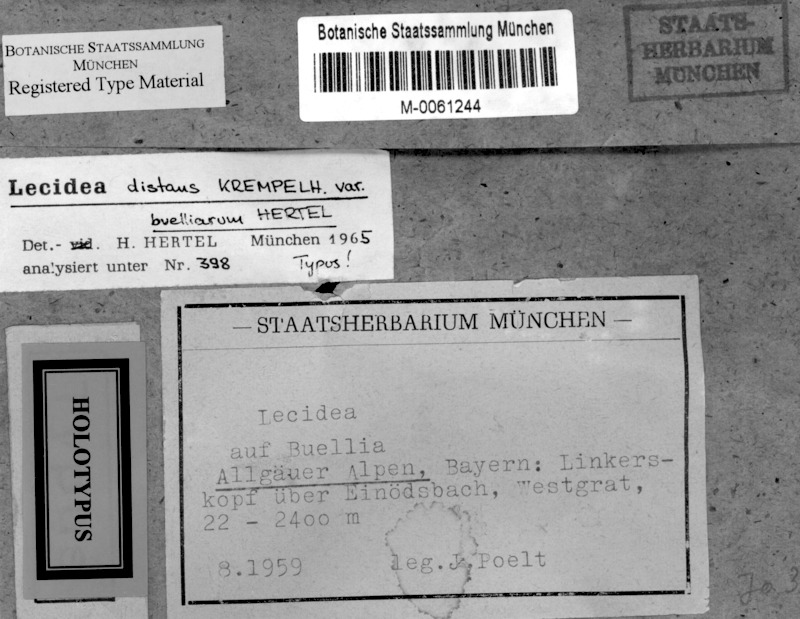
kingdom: Fungi
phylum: Ascomycota
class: Lecanoromycetes
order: Lecanorales
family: Lecanoraceae
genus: Lecidella
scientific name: Lecidella pulveracea
